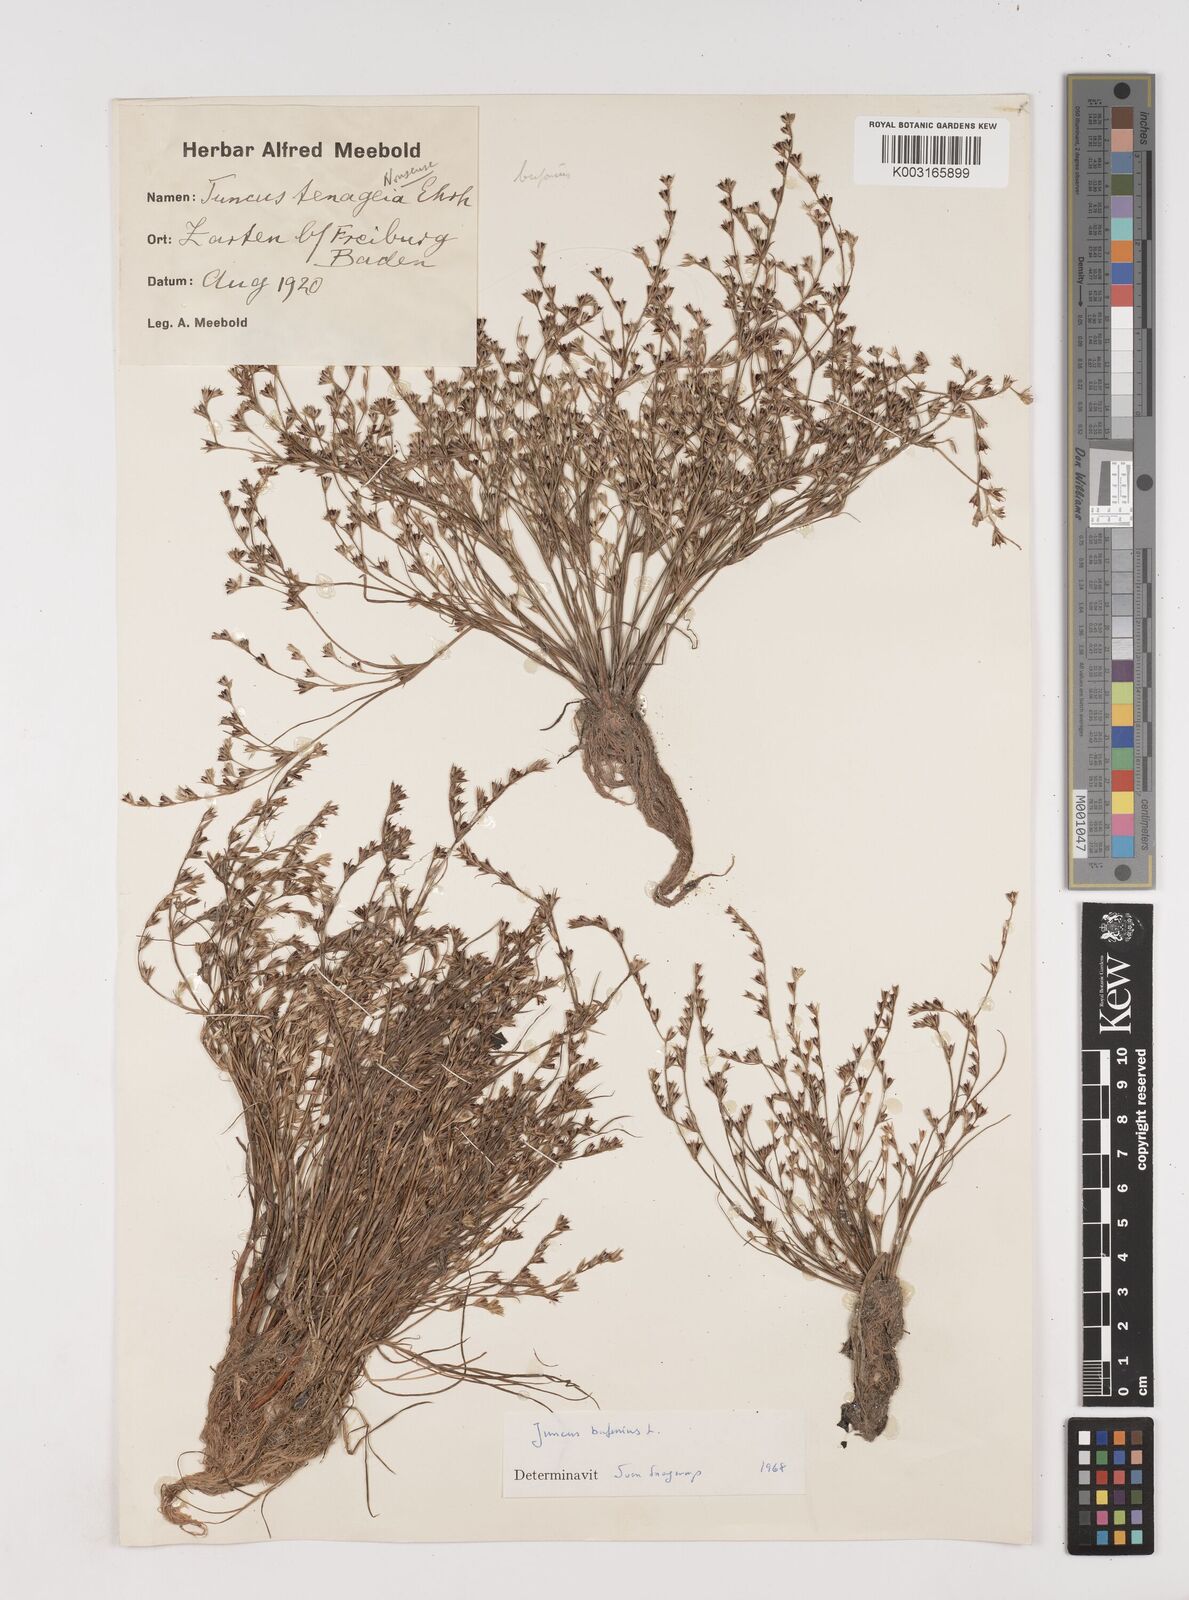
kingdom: Plantae
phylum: Tracheophyta
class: Liliopsida
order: Poales
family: Juncaceae
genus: Juncus
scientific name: Juncus bufonius
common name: Toad rush
